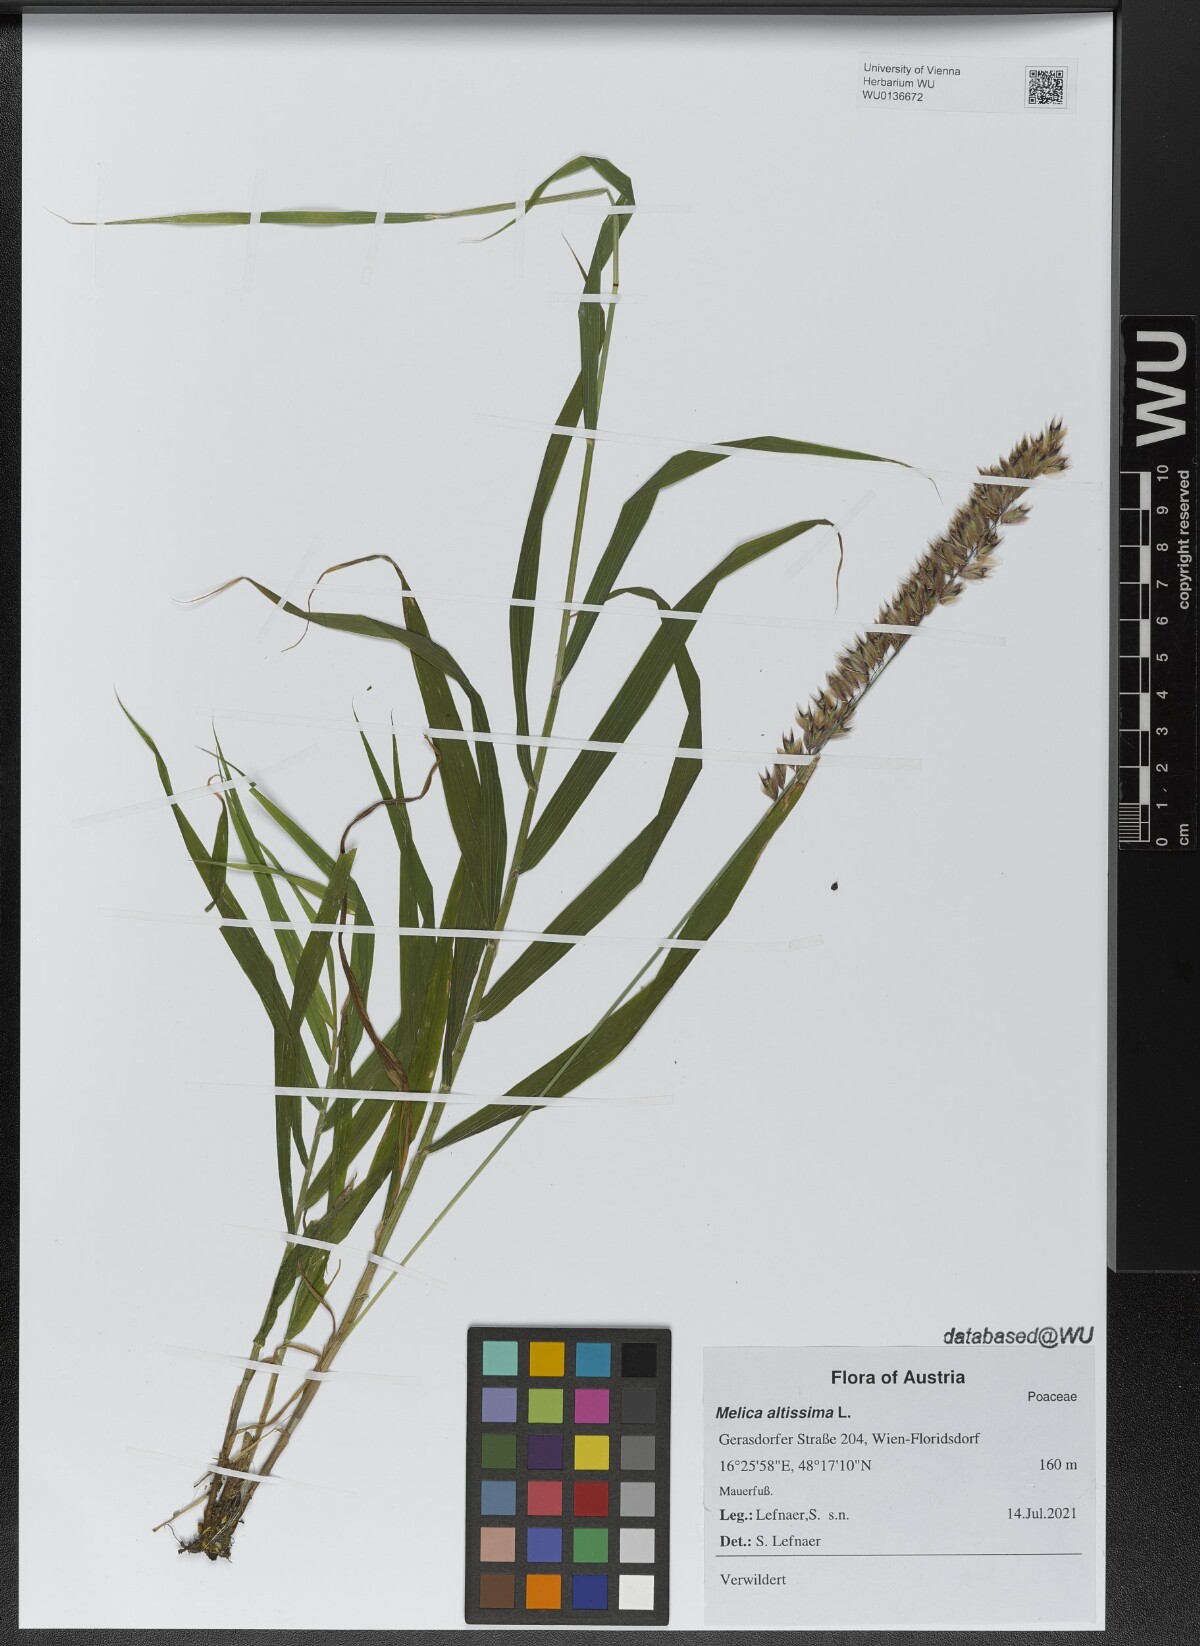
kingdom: Plantae
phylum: Tracheophyta
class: Liliopsida
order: Poales
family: Poaceae
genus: Melica
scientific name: Melica altissima
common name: Siberian melicgrass
